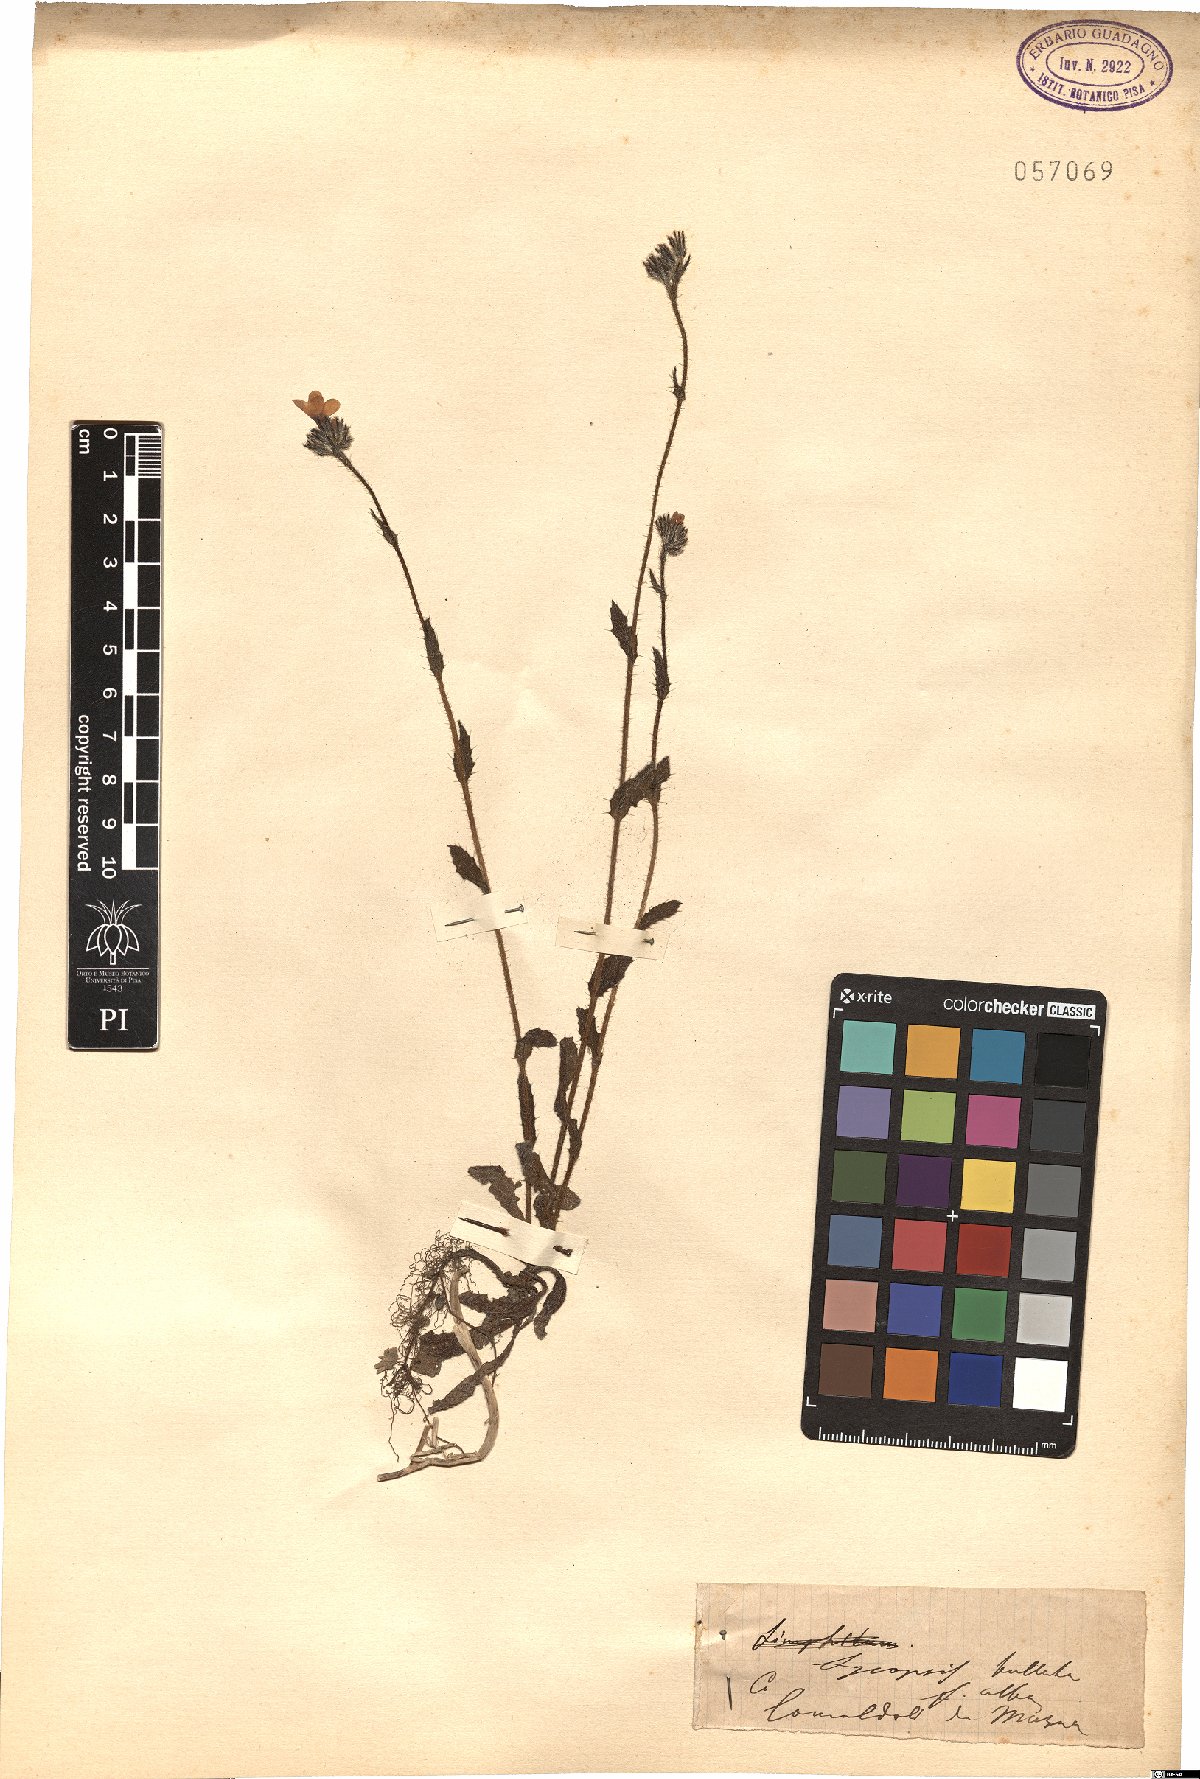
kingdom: Plantae
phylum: Tracheophyta
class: Magnoliopsida
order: Boraginales
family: Boraginaceae
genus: Anchusella
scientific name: Anchusella variegata
